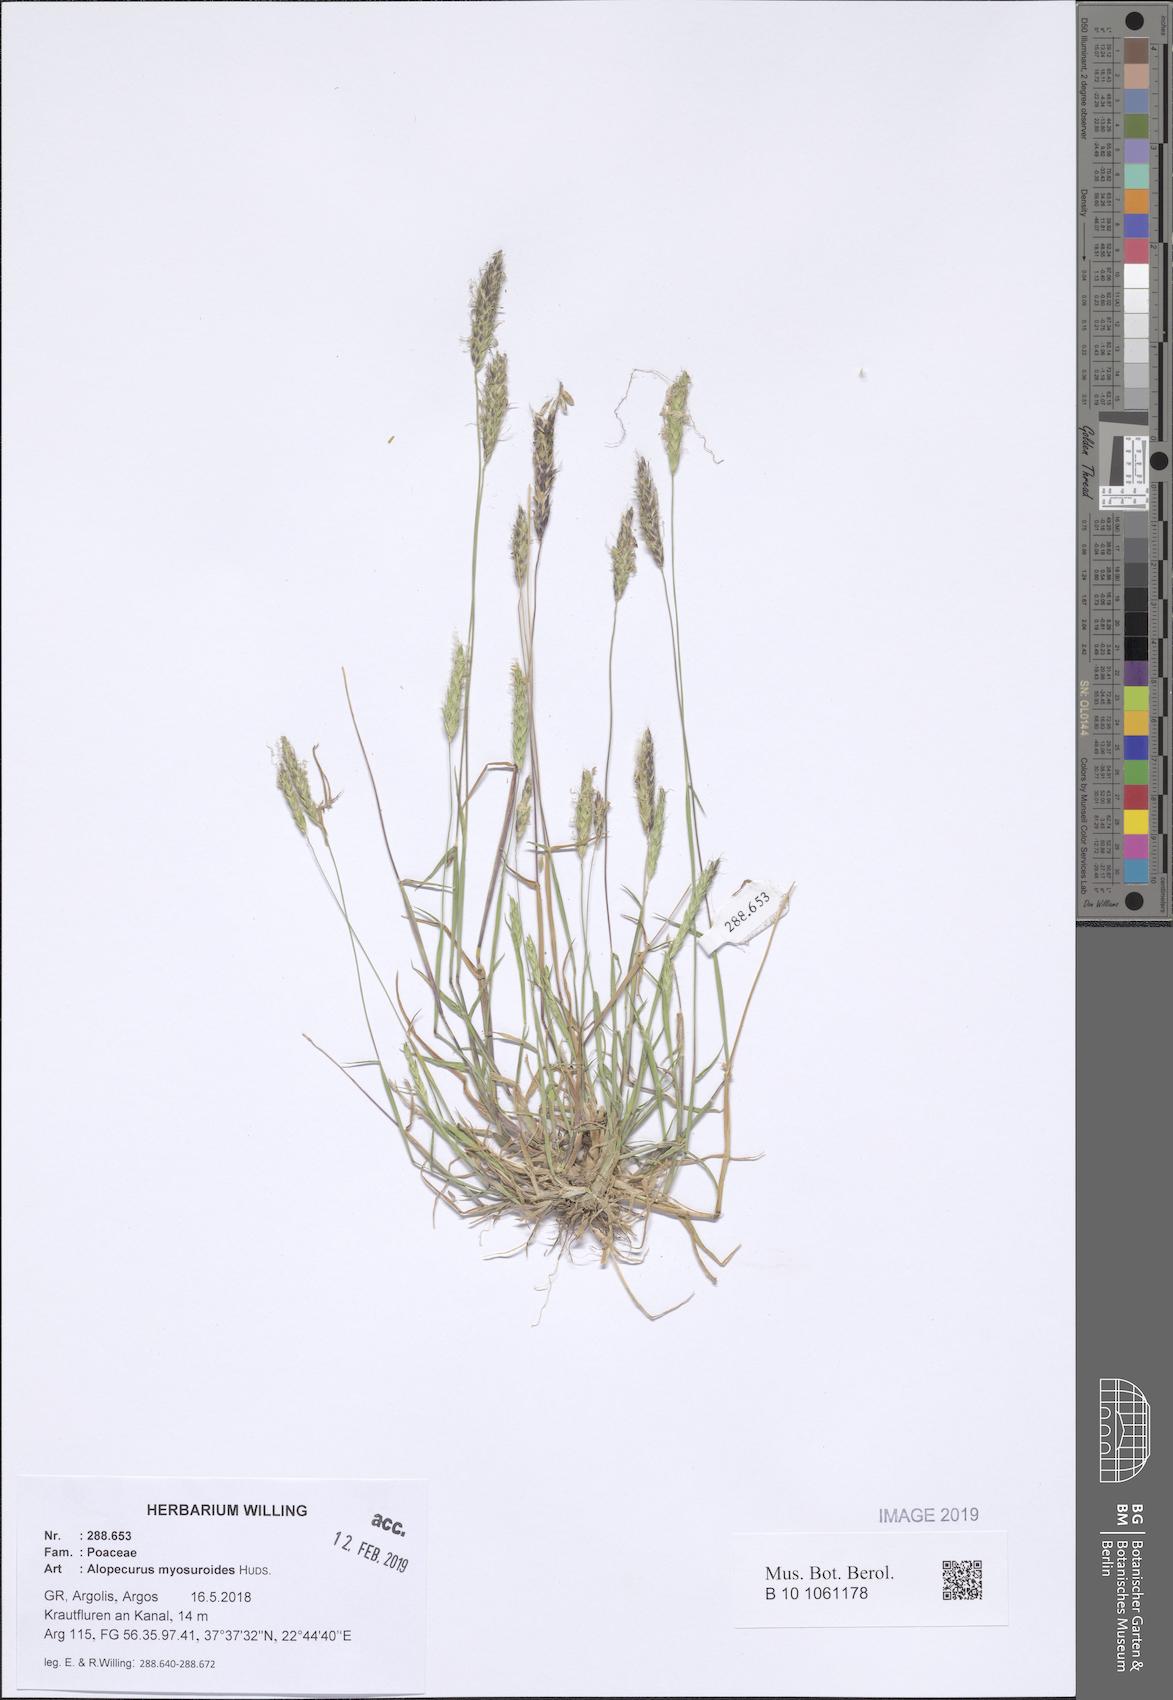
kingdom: Plantae
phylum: Tracheophyta
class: Liliopsida
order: Poales
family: Poaceae
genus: Alopecurus
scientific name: Alopecurus myosuroides
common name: Black-grass
